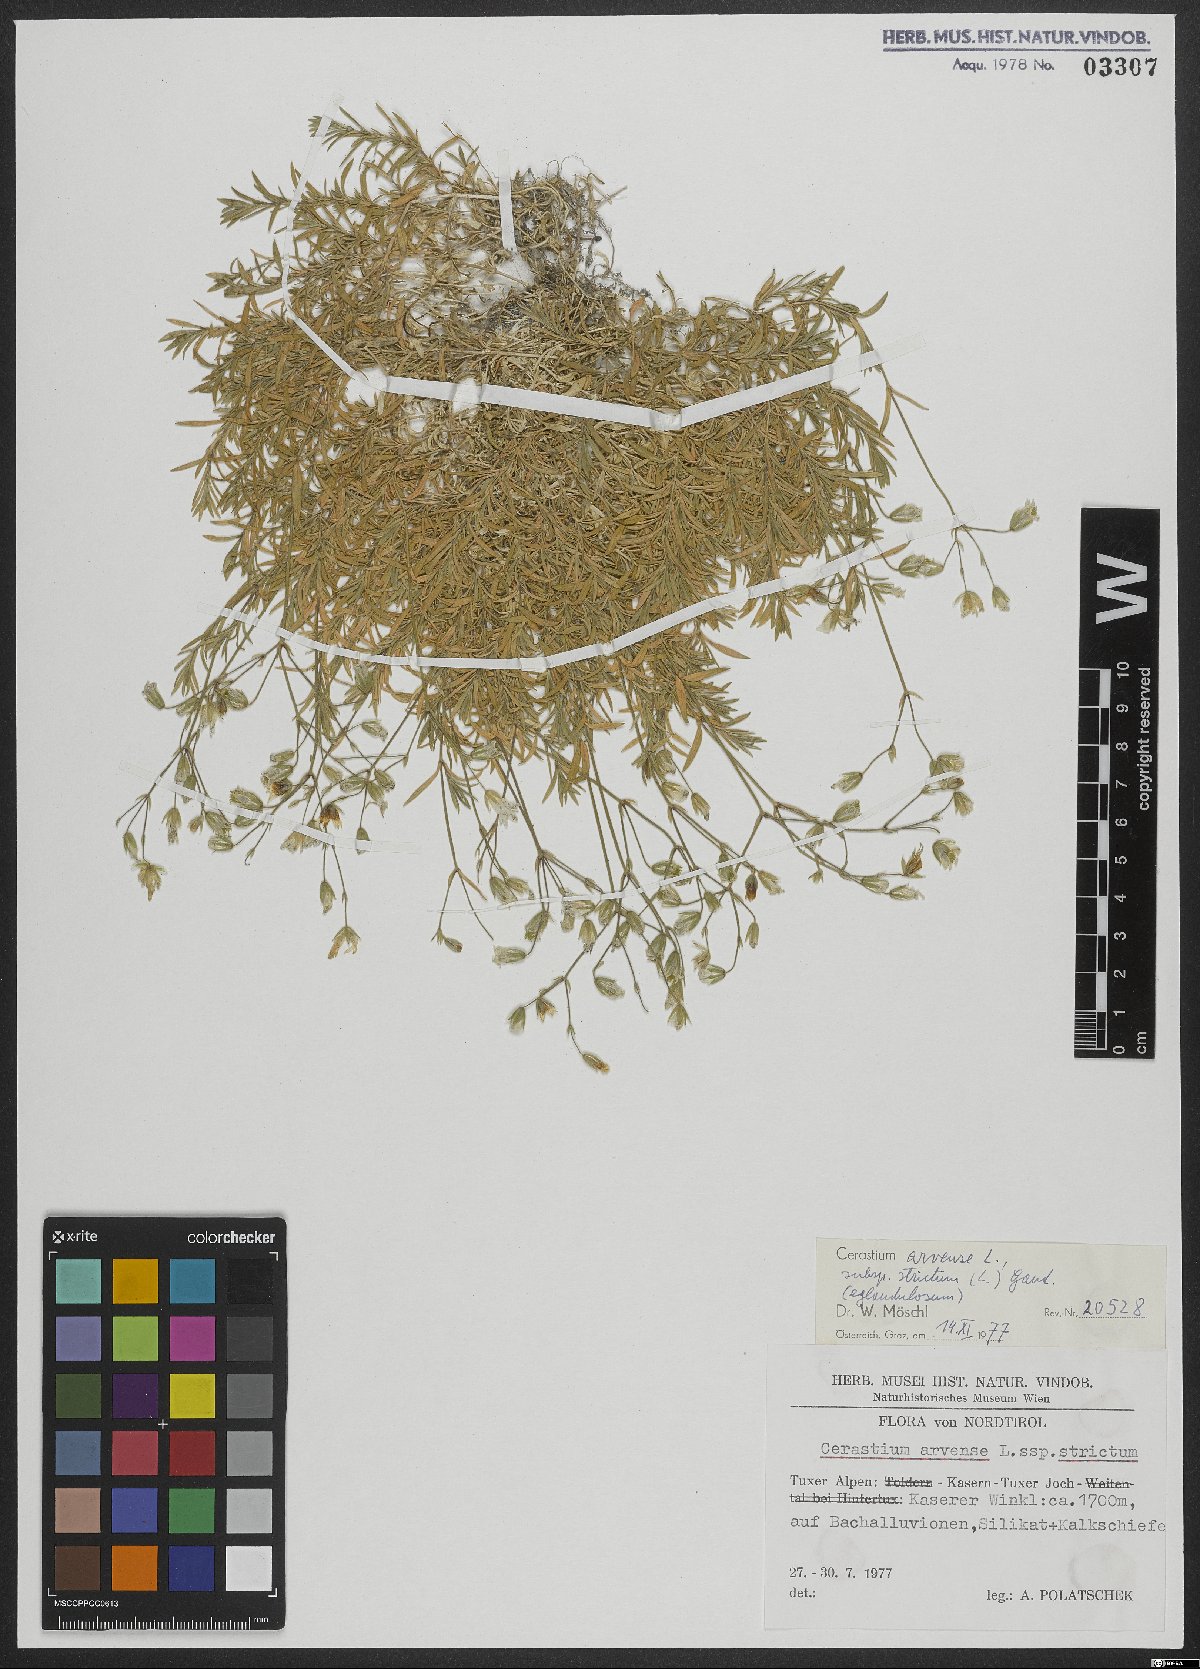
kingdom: Plantae
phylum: Tracheophyta
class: Magnoliopsida
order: Caryophyllales
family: Caryophyllaceae
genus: Cerastium
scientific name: Cerastium elongatum
